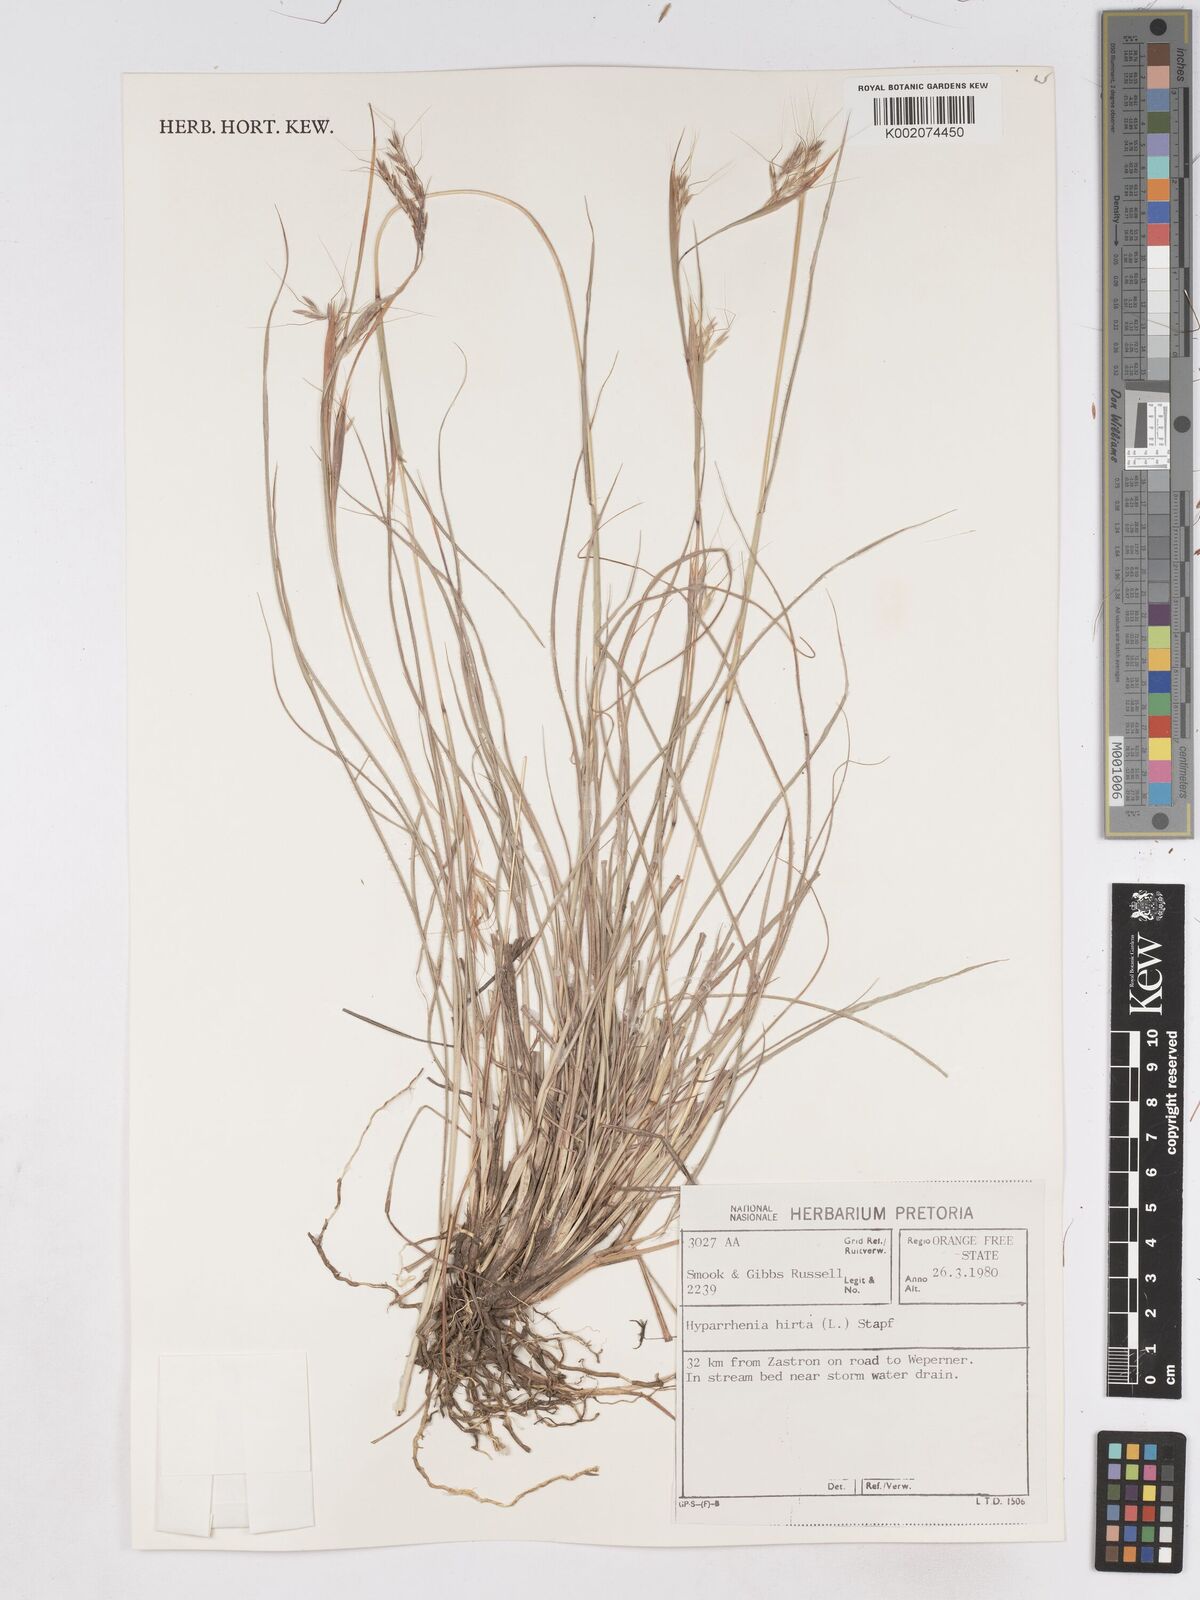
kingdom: Plantae
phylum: Tracheophyta
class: Liliopsida
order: Poales
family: Poaceae
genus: Hyparrhenia
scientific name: Hyparrhenia hirta
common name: Thatching grass
